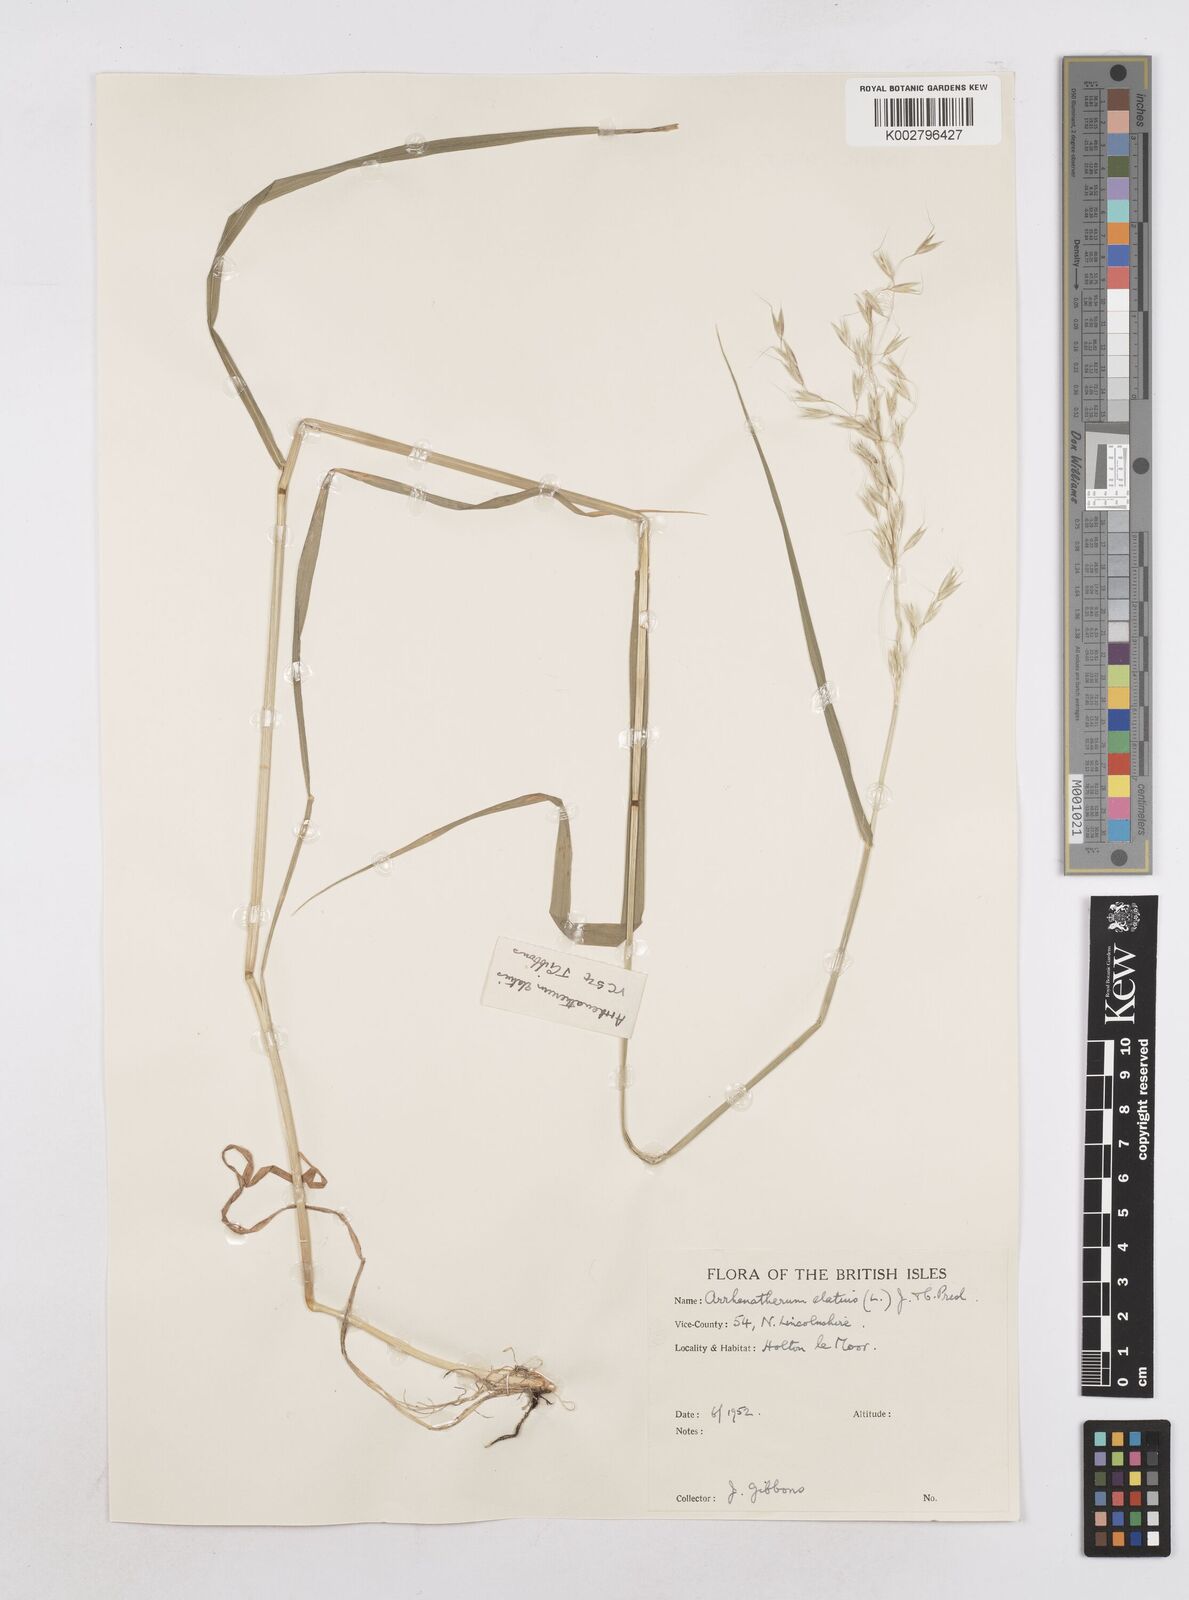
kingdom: Plantae
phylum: Tracheophyta
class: Liliopsida
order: Poales
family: Poaceae
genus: Arrhenatherum
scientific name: Arrhenatherum elatius
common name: Tall oatgrass
